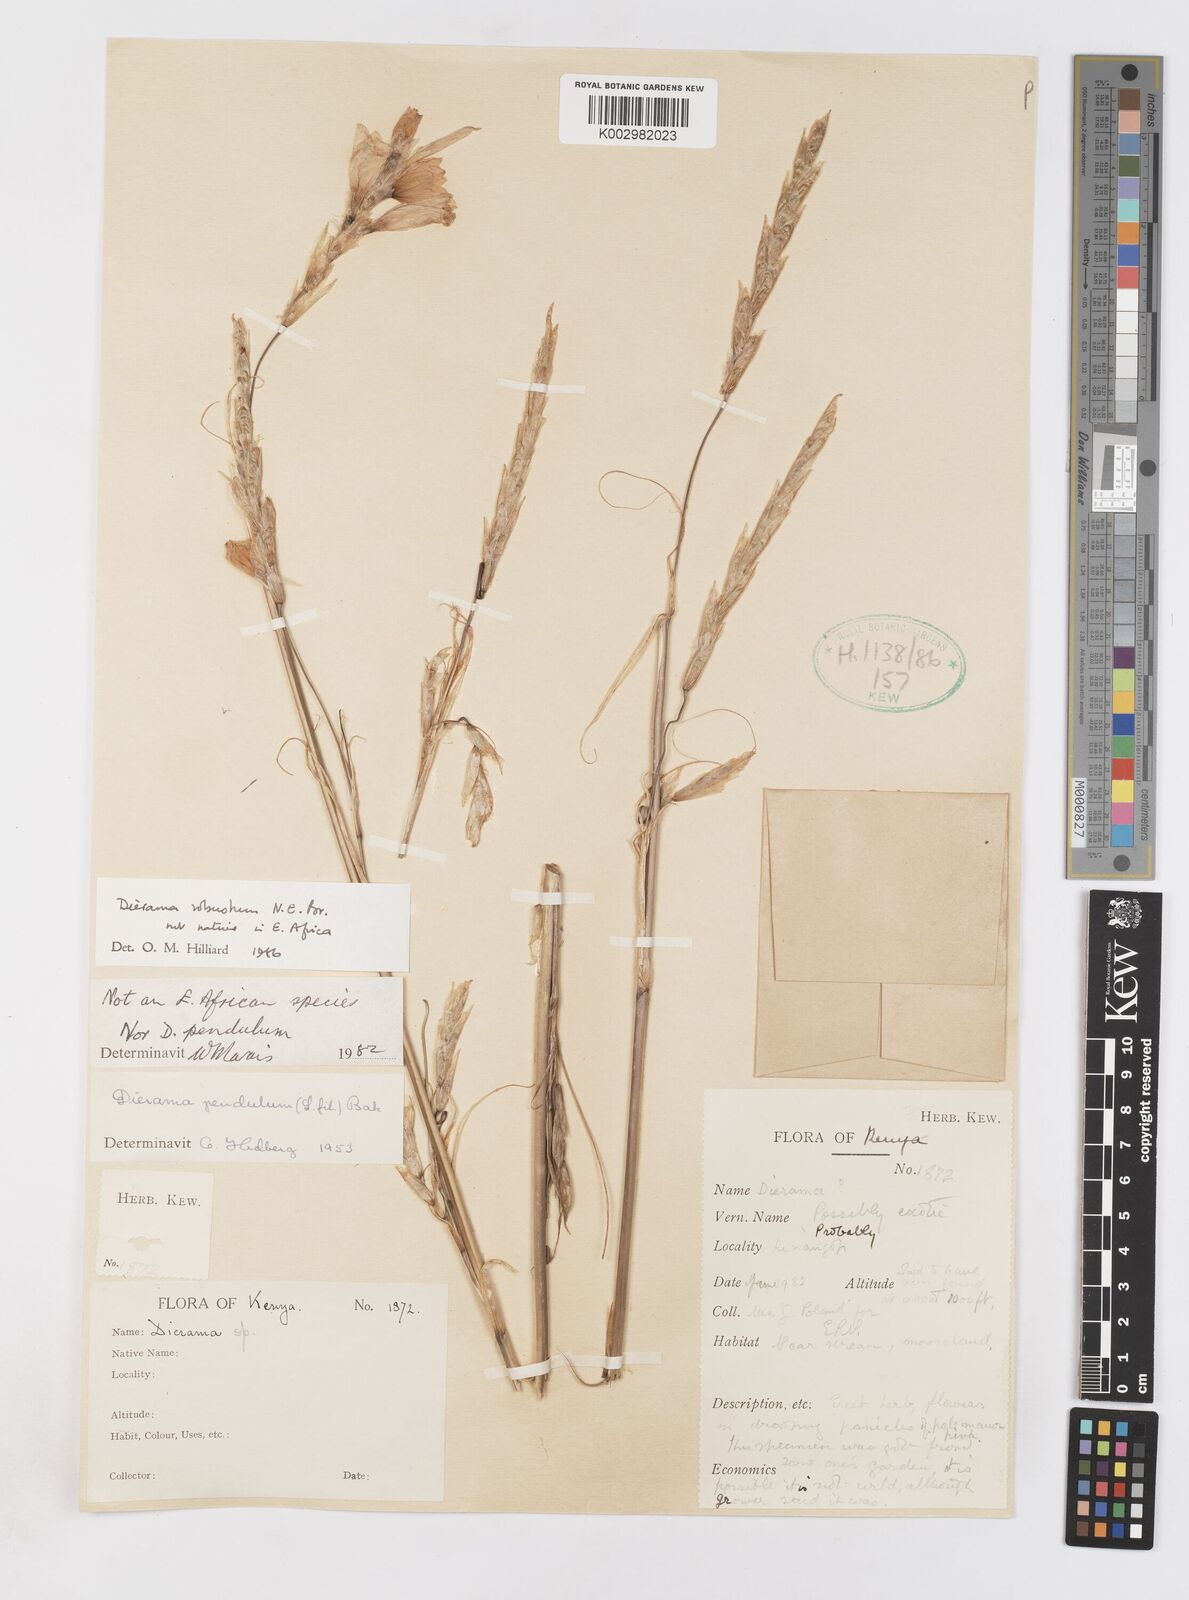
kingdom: Plantae
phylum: Tracheophyta
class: Liliopsida
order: Asparagales
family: Iridaceae
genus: Dierama
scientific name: Dierama robustum
